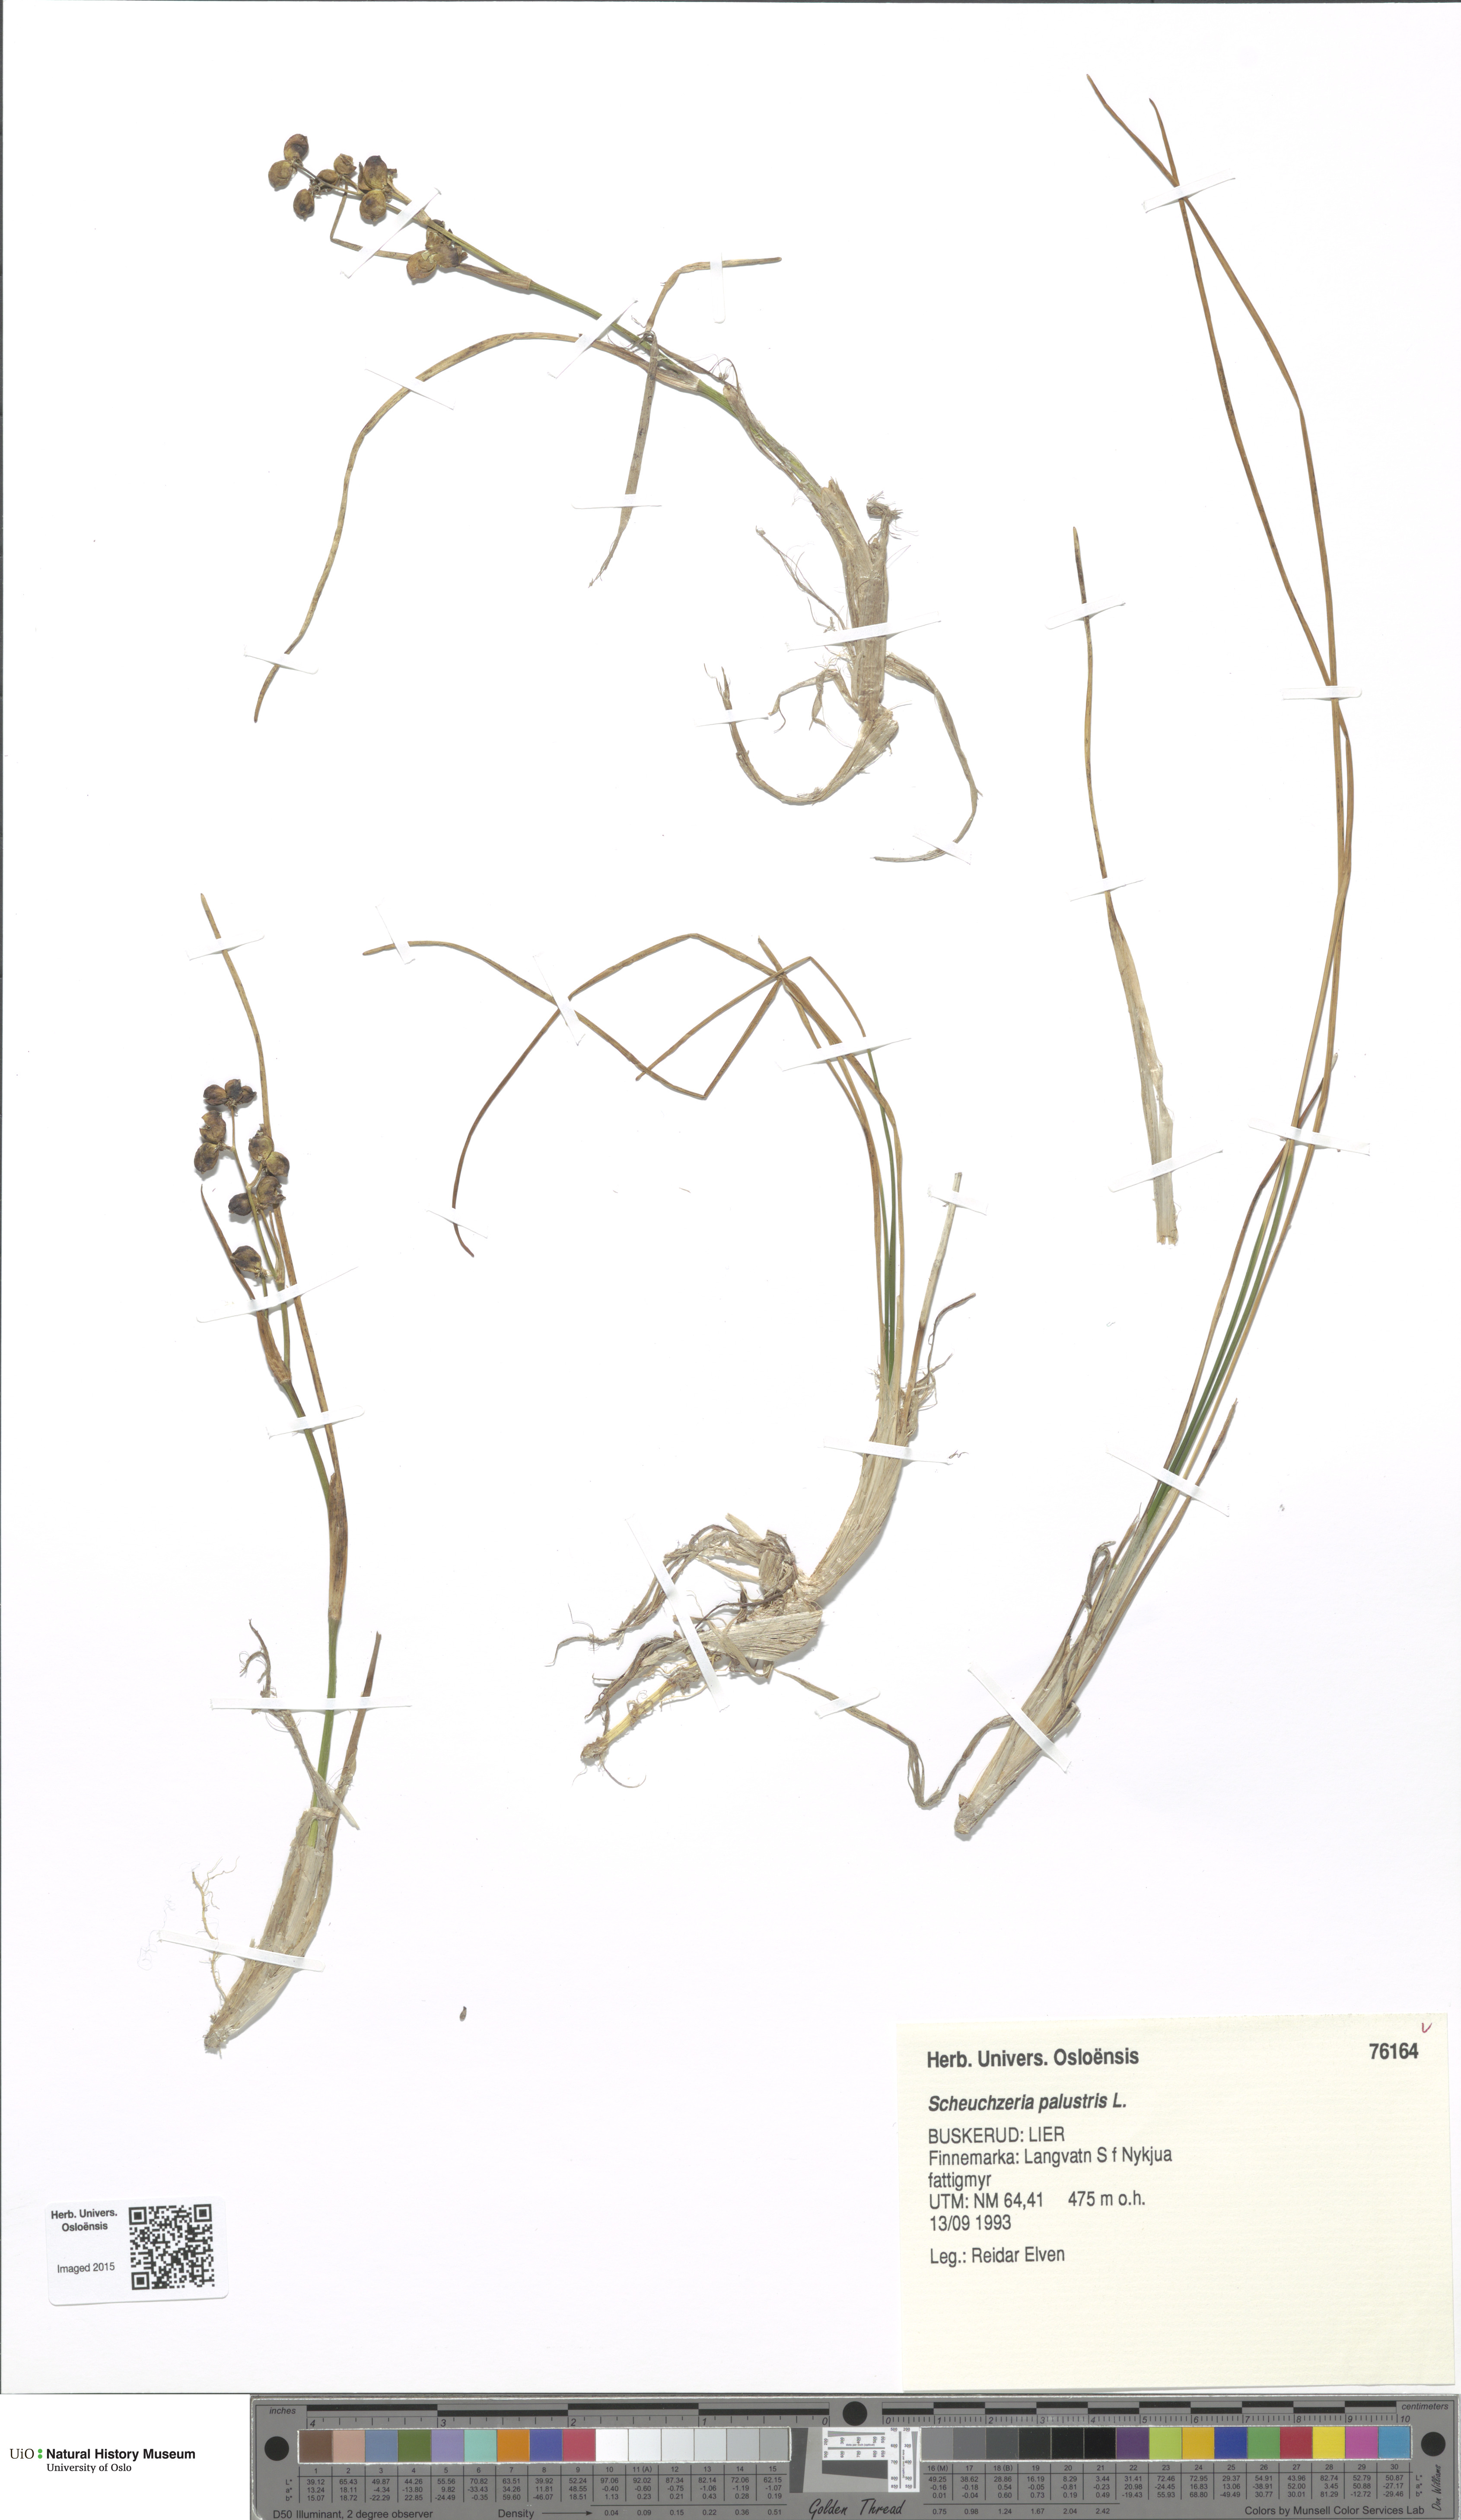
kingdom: Plantae
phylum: Tracheophyta
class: Liliopsida
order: Alismatales
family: Scheuchzeriaceae
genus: Scheuchzeria
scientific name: Scheuchzeria palustris
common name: Rannoch-rush
